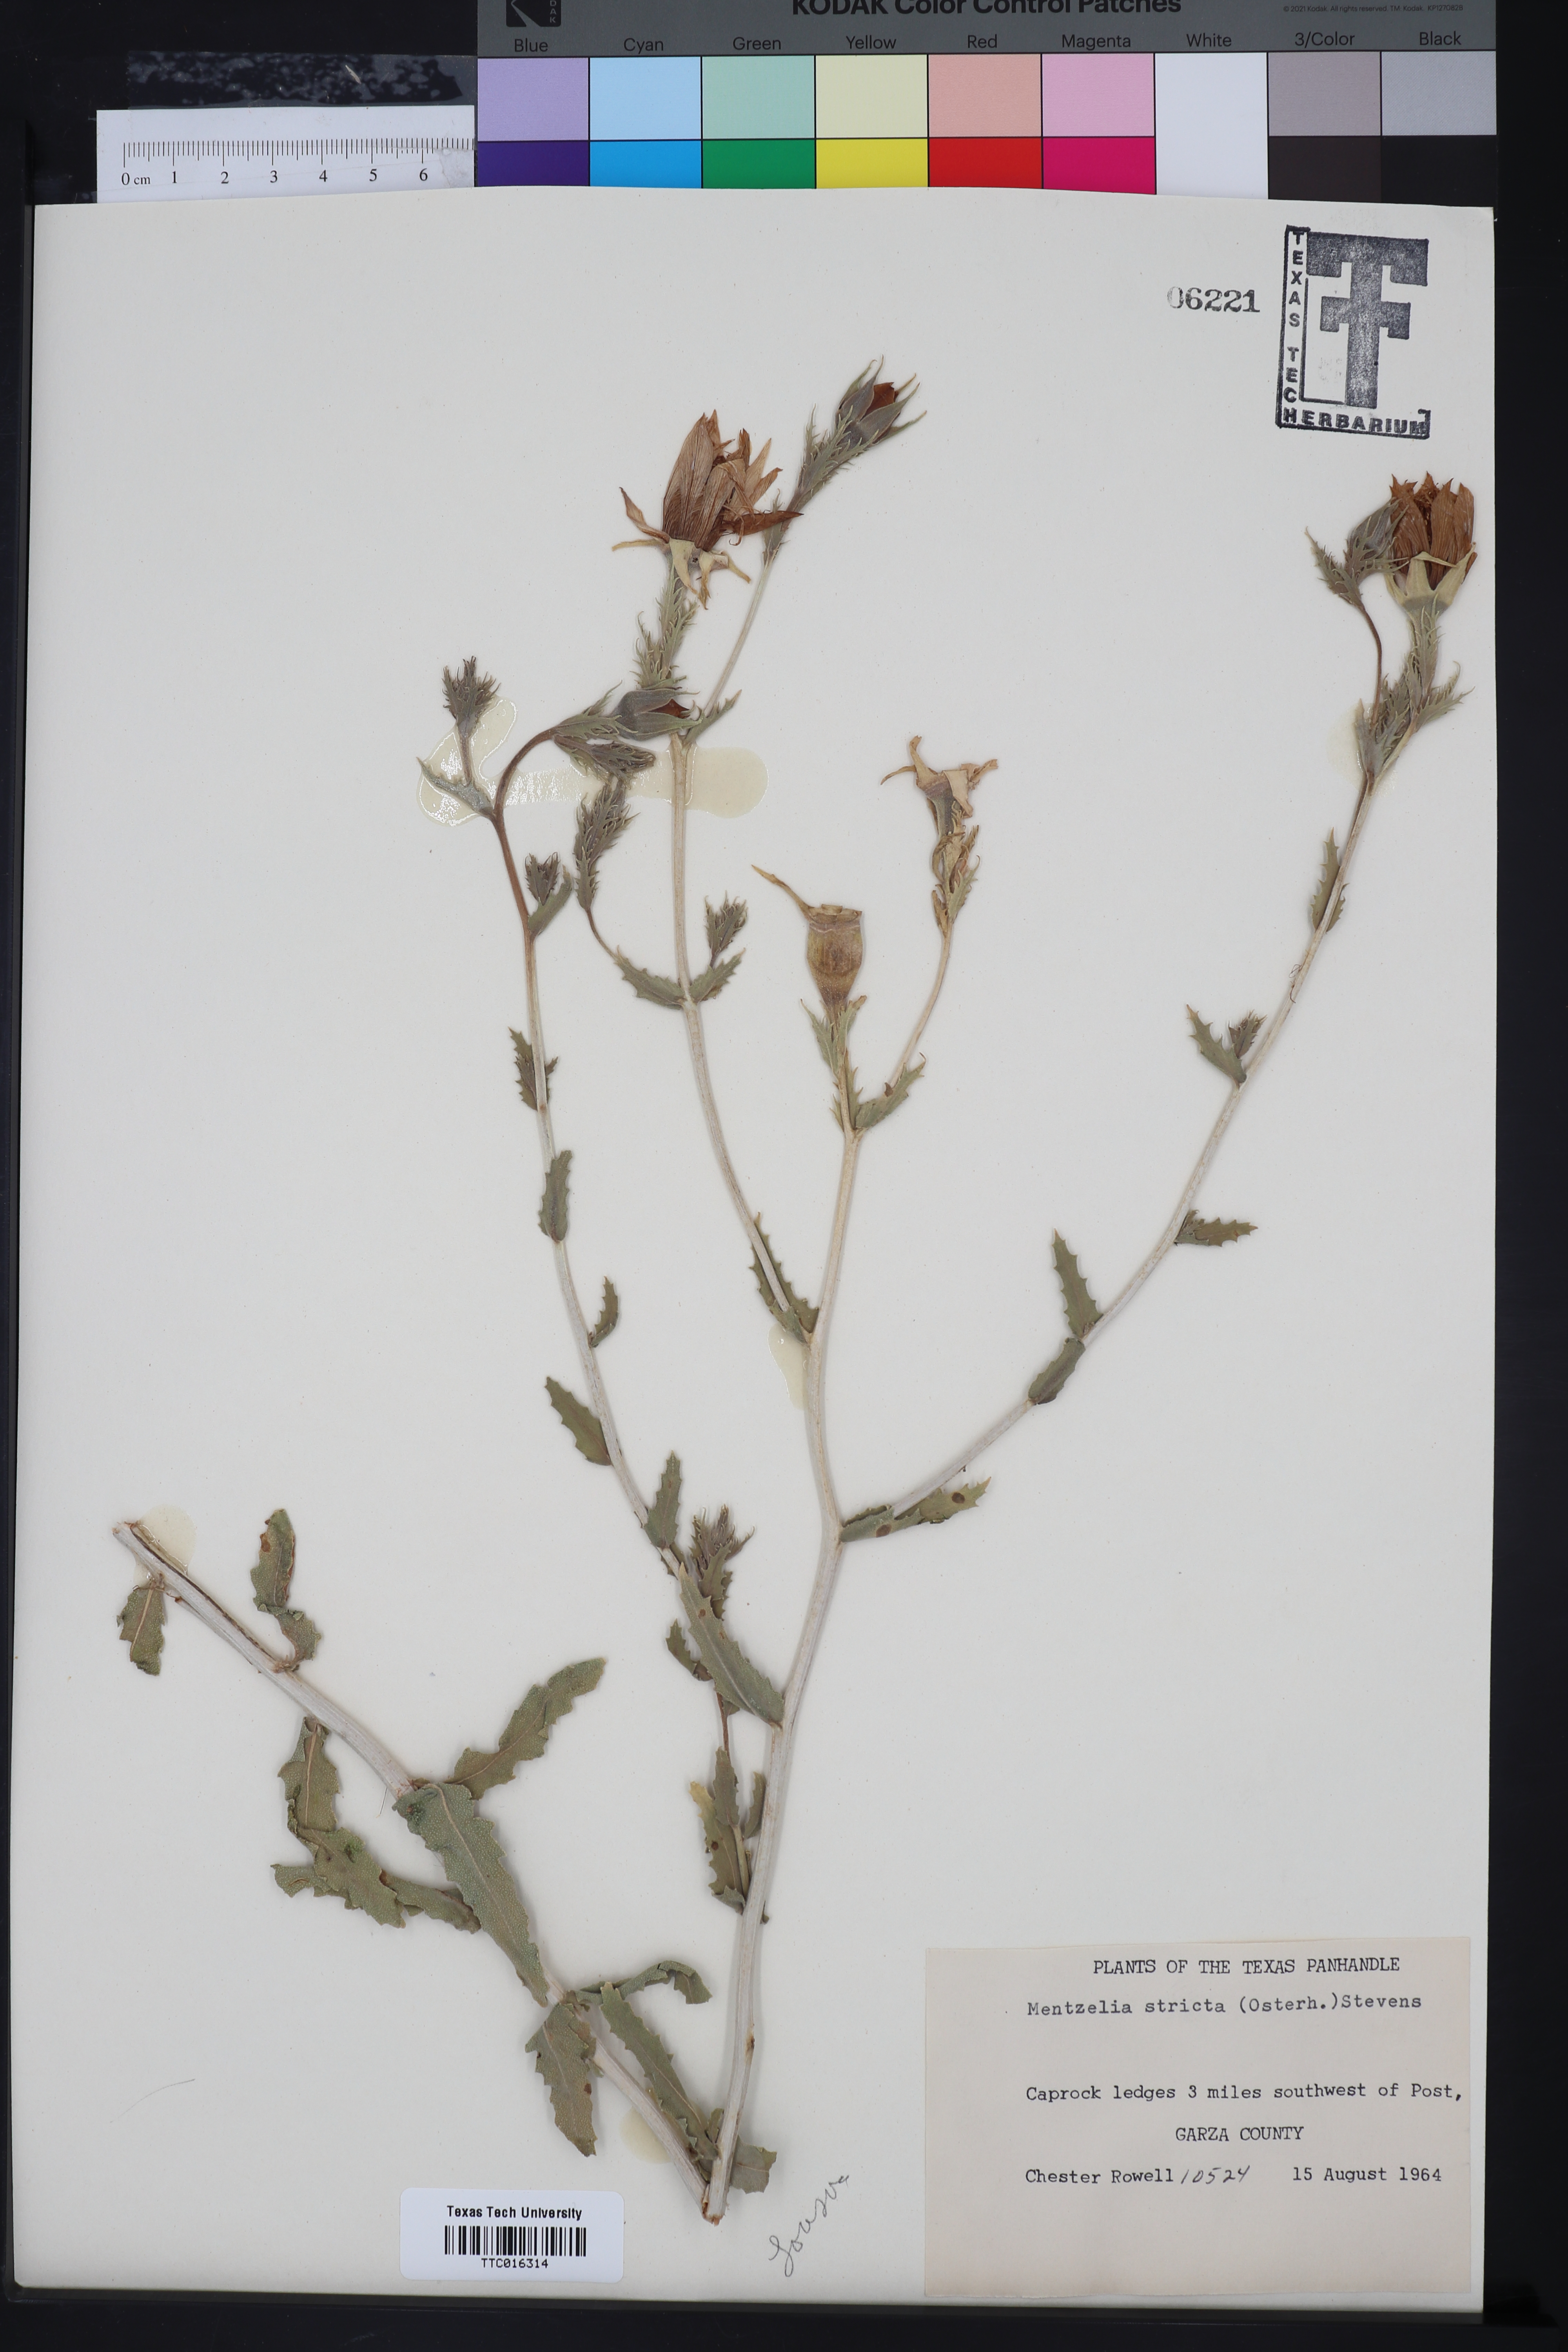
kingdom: Plantae
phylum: Tracheophyta
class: Magnoliopsida
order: Cornales
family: Loasaceae
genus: Mentzelia
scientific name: Mentzelia nuda
